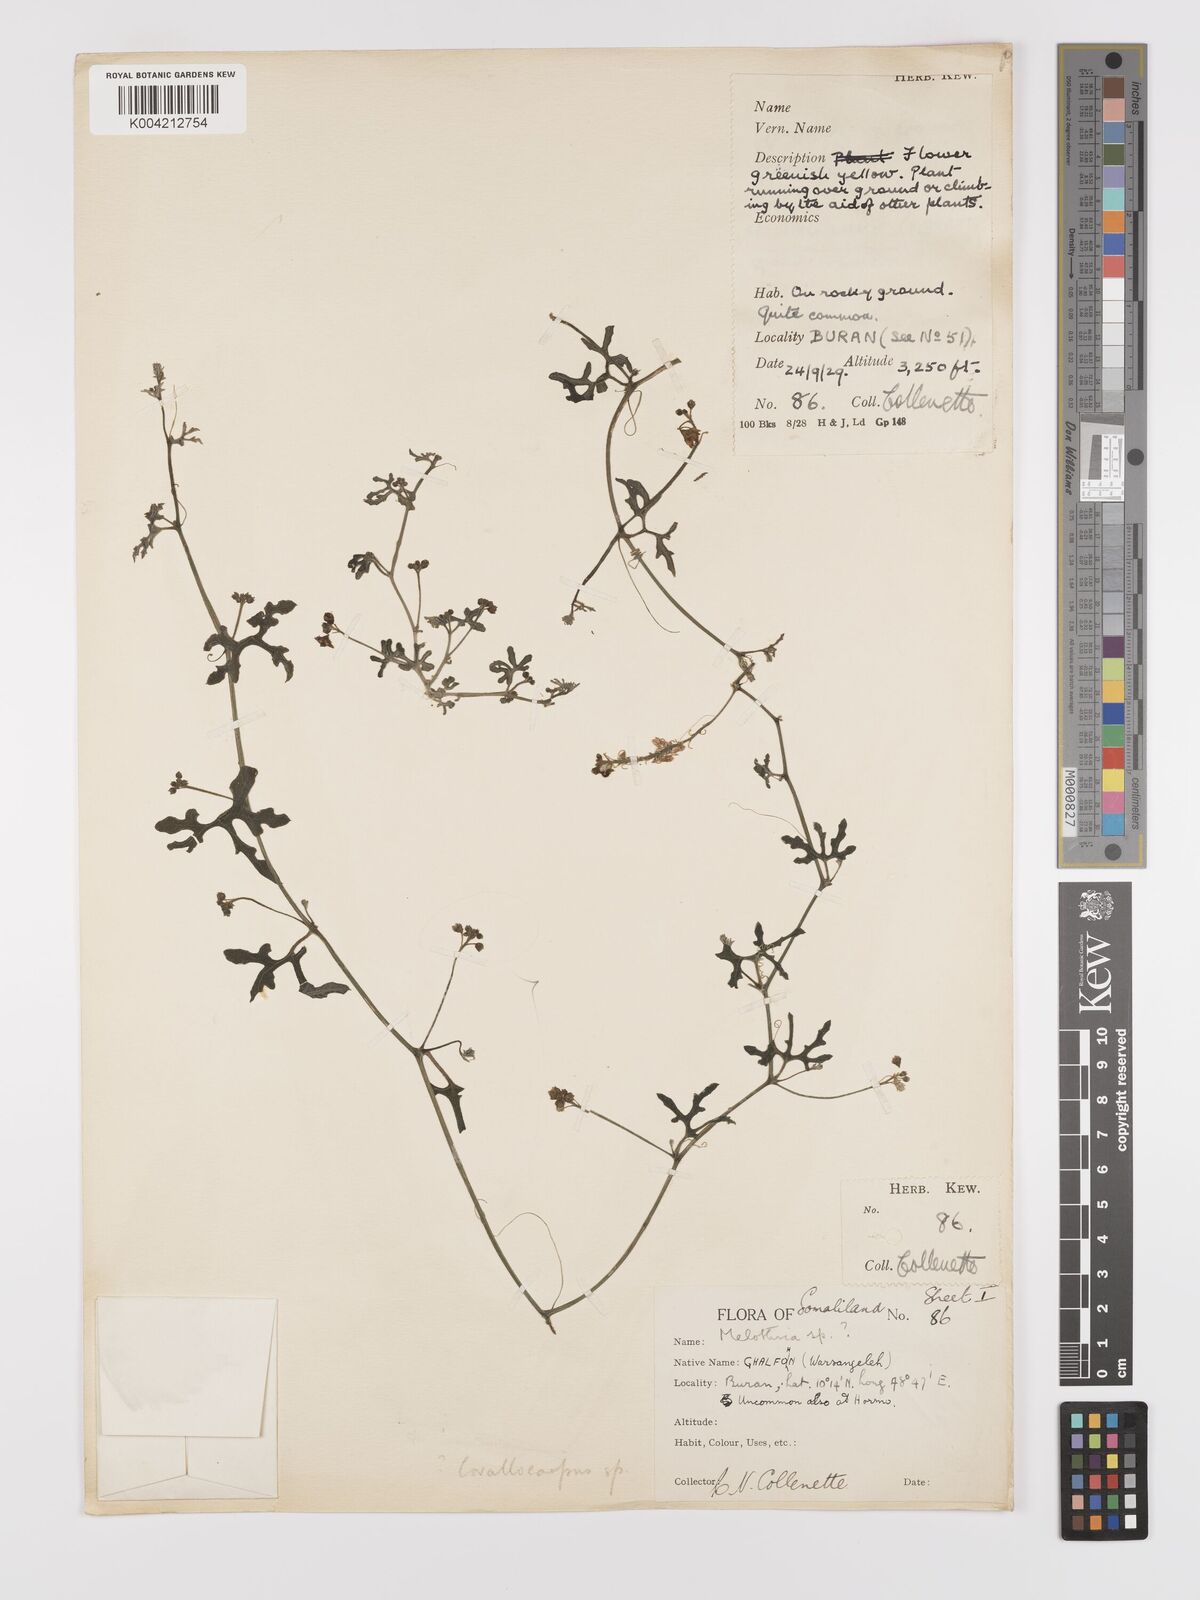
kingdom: Plantae
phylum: Tracheophyta
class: Magnoliopsida
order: Cucurbitales
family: Cucurbitaceae
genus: Corallocarpus
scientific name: Corallocarpus
